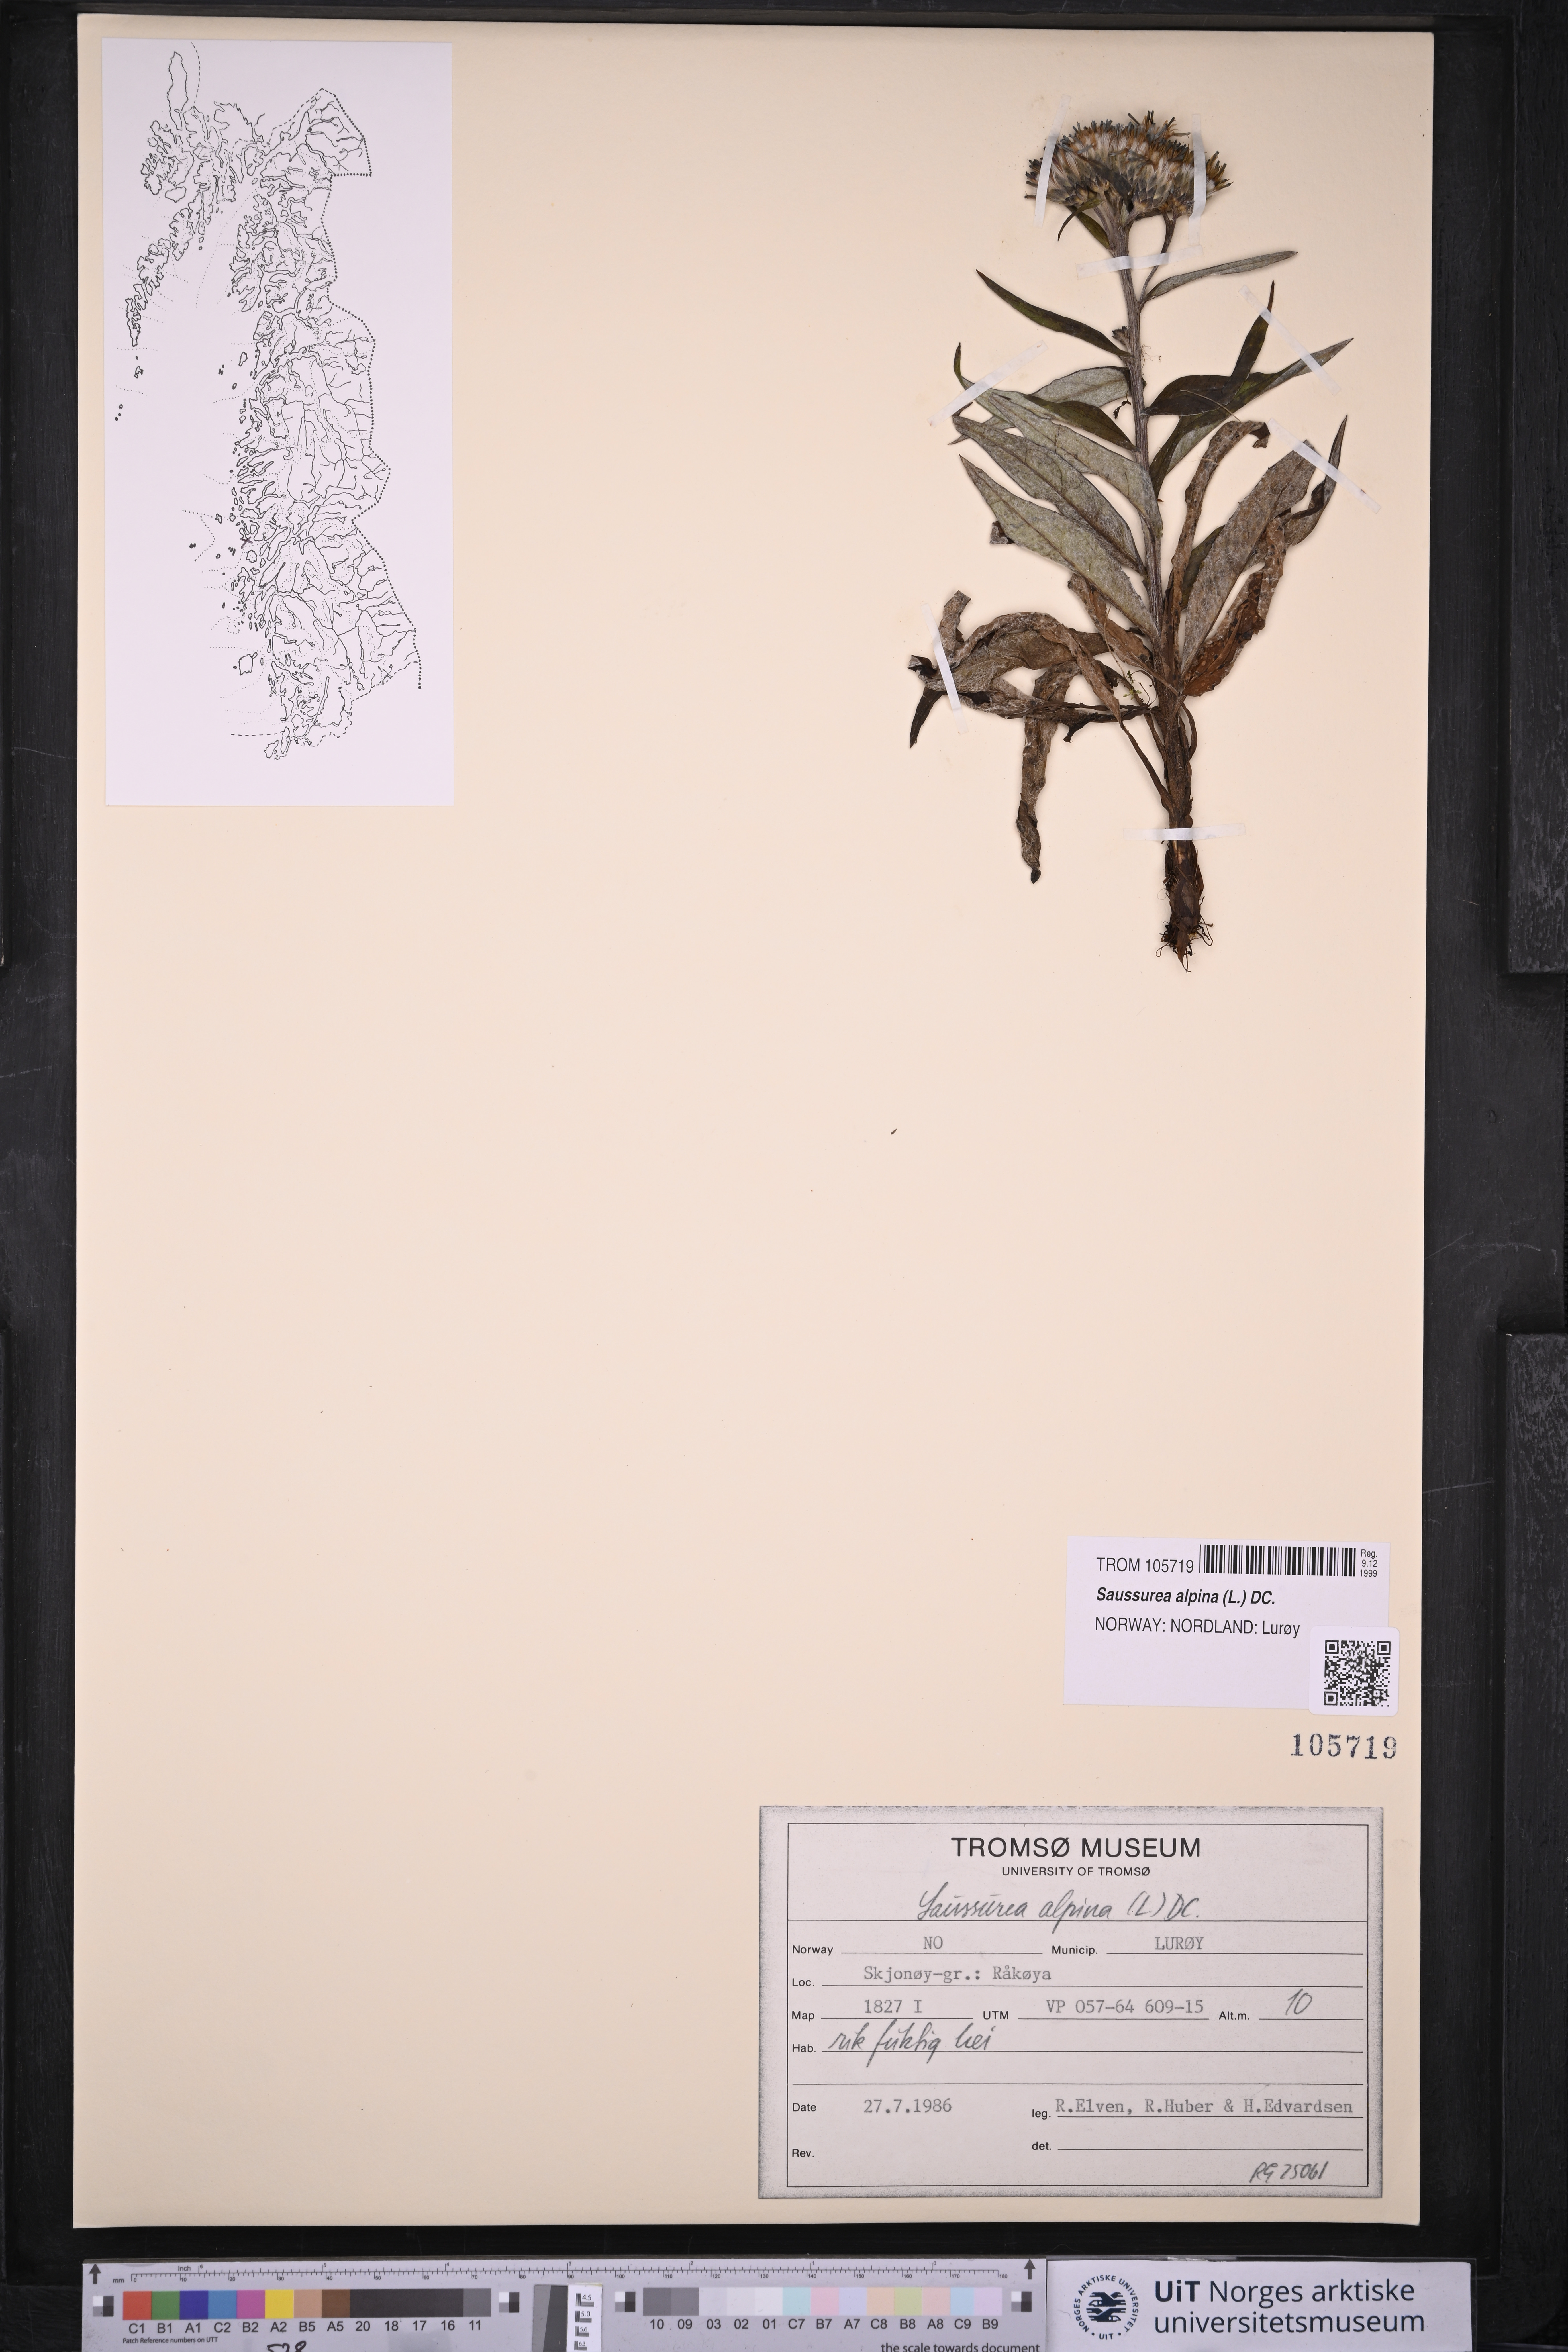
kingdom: Plantae
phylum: Tracheophyta
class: Magnoliopsida
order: Asterales
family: Asteraceae
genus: Saussurea
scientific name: Saussurea alpina
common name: Alpine saw-wort
